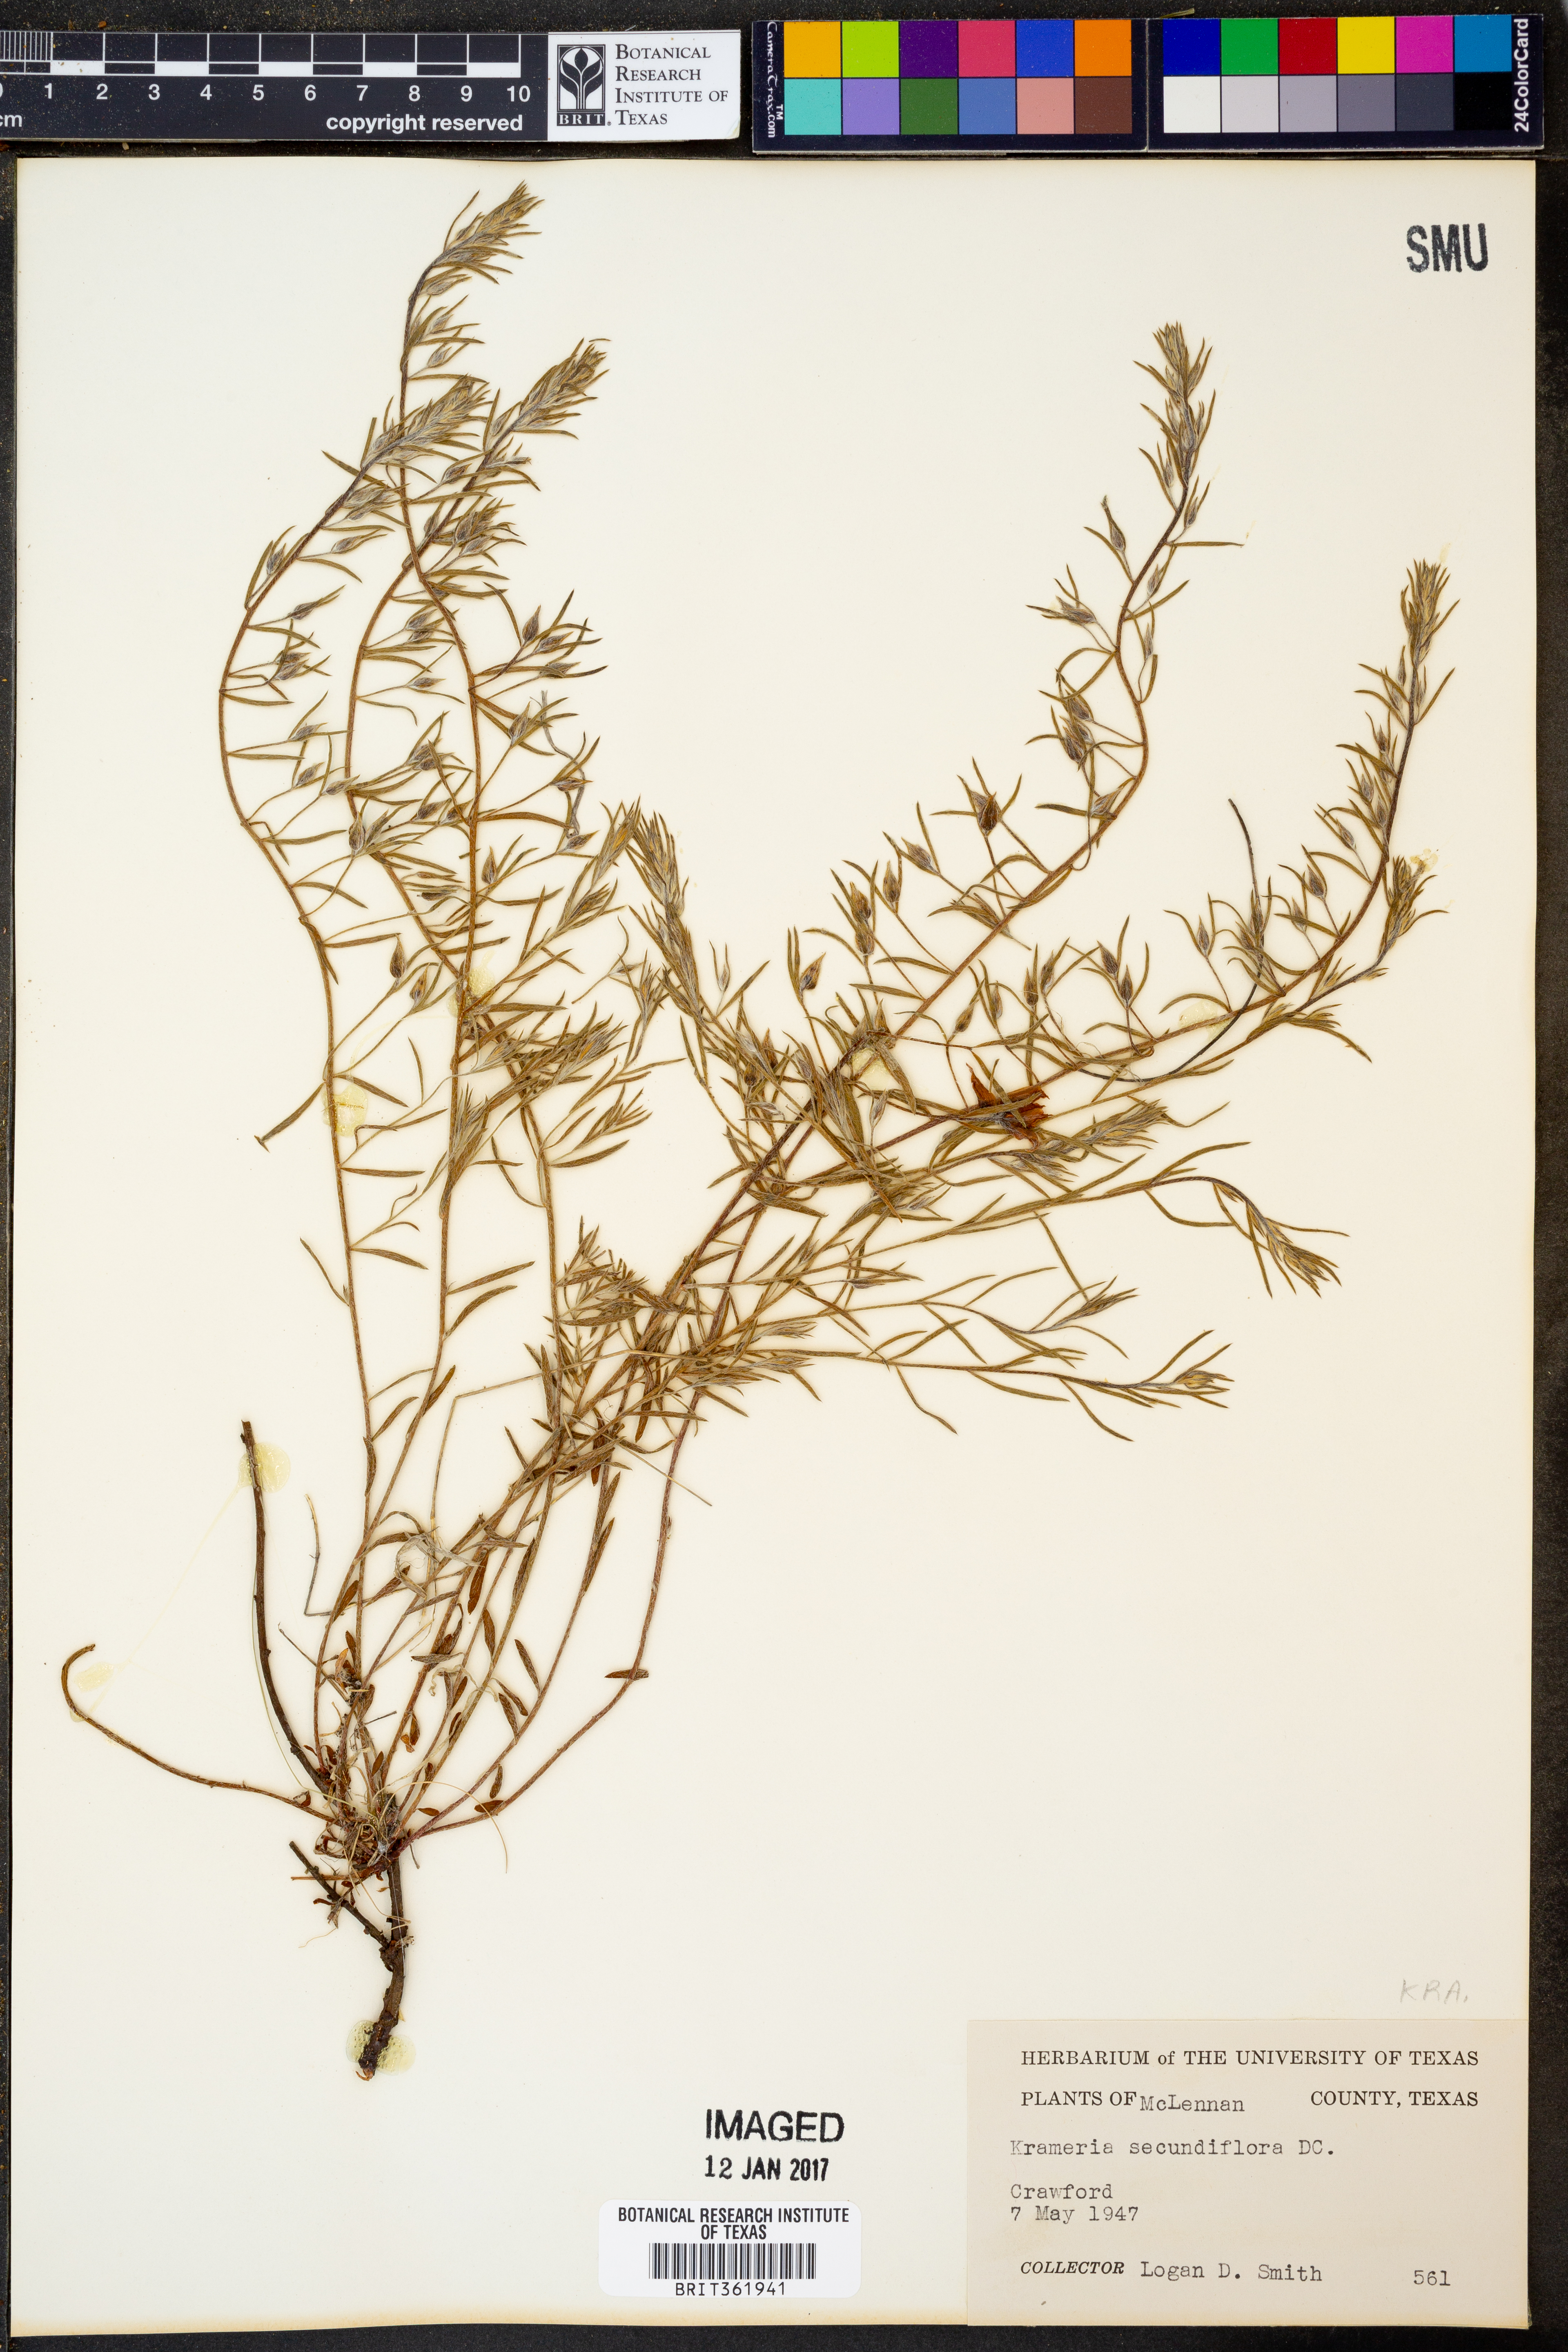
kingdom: Plantae
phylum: Tracheophyta
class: Magnoliopsida
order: Zygophyllales
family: Krameriaceae
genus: Krameria
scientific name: Krameria secundiflora
